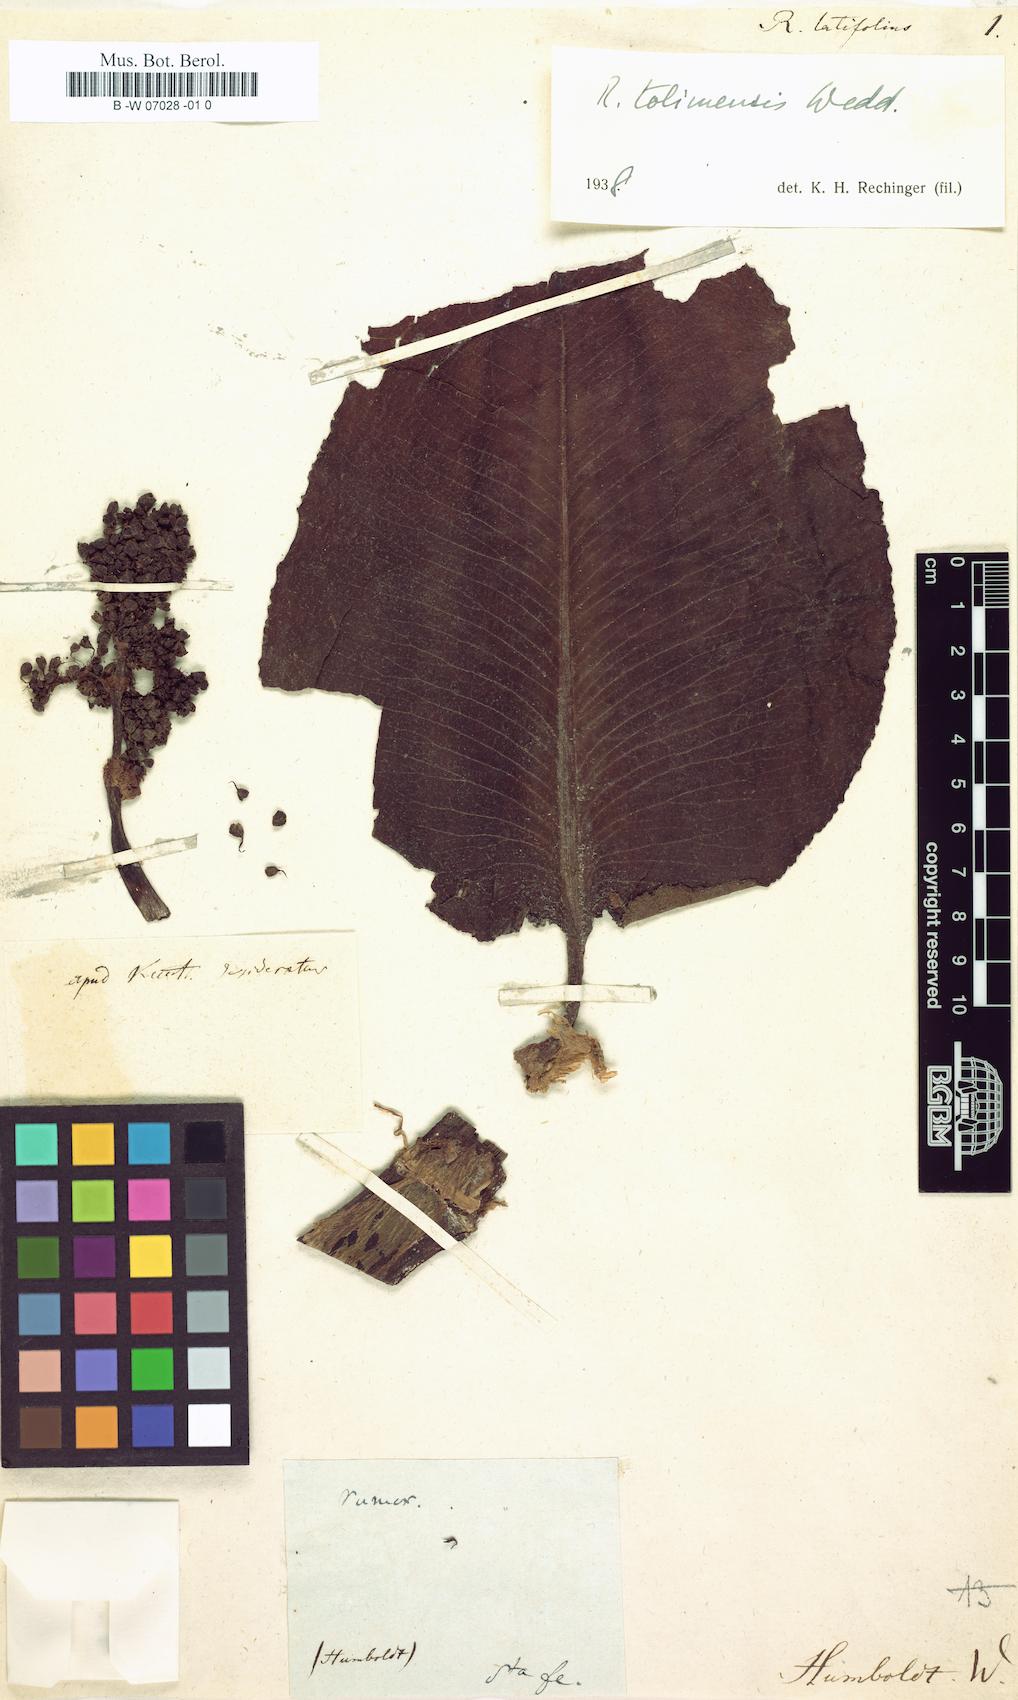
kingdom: Plantae
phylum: Tracheophyta
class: Magnoliopsida
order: Caryophyllales
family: Polygonaceae
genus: Rumex
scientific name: Rumex
